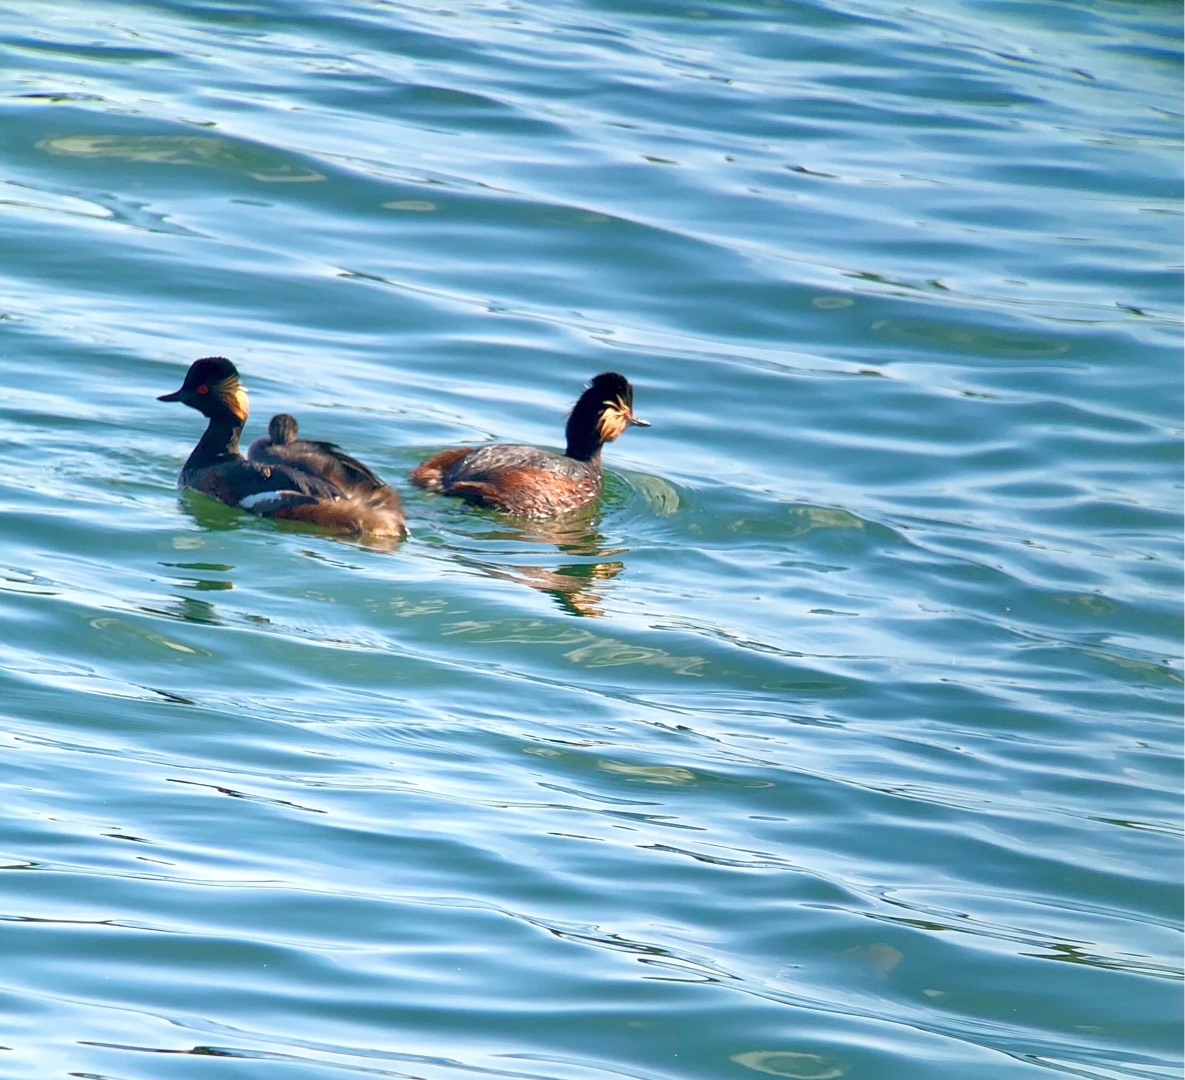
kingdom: Animalia
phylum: Chordata
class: Aves
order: Podicipediformes
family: Podicipedidae
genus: Podiceps
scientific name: Podiceps nigricollis
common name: Sorthalset lappedykker
